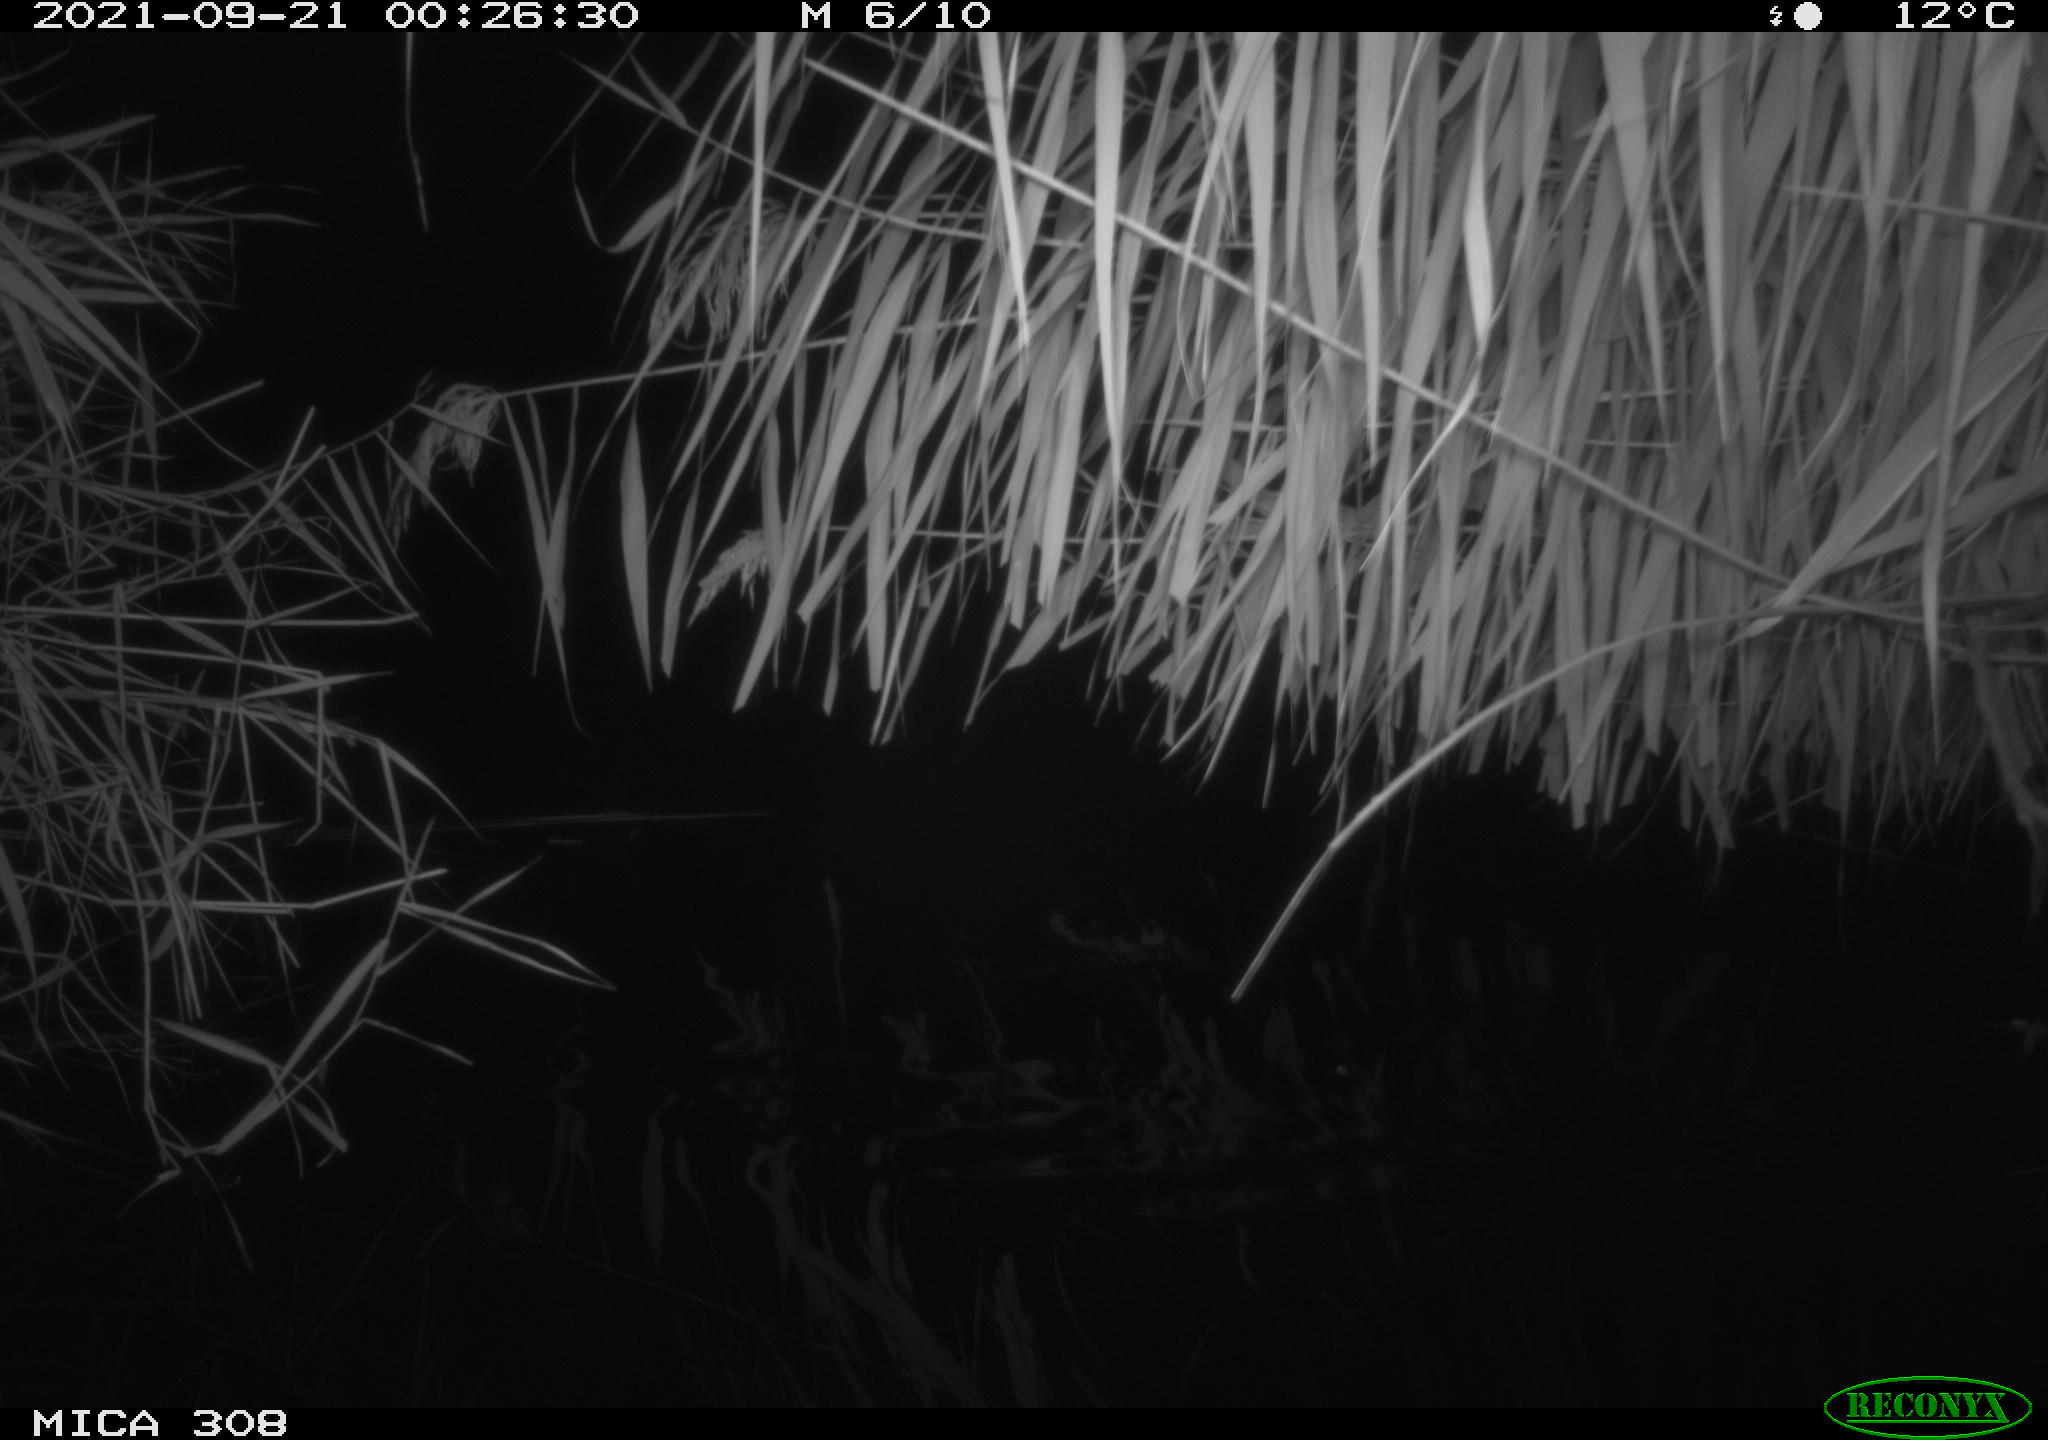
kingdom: Animalia
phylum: Chordata
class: Mammalia
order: Rodentia
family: Muridae
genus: Rattus
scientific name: Rattus norvegicus
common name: Brown rat
